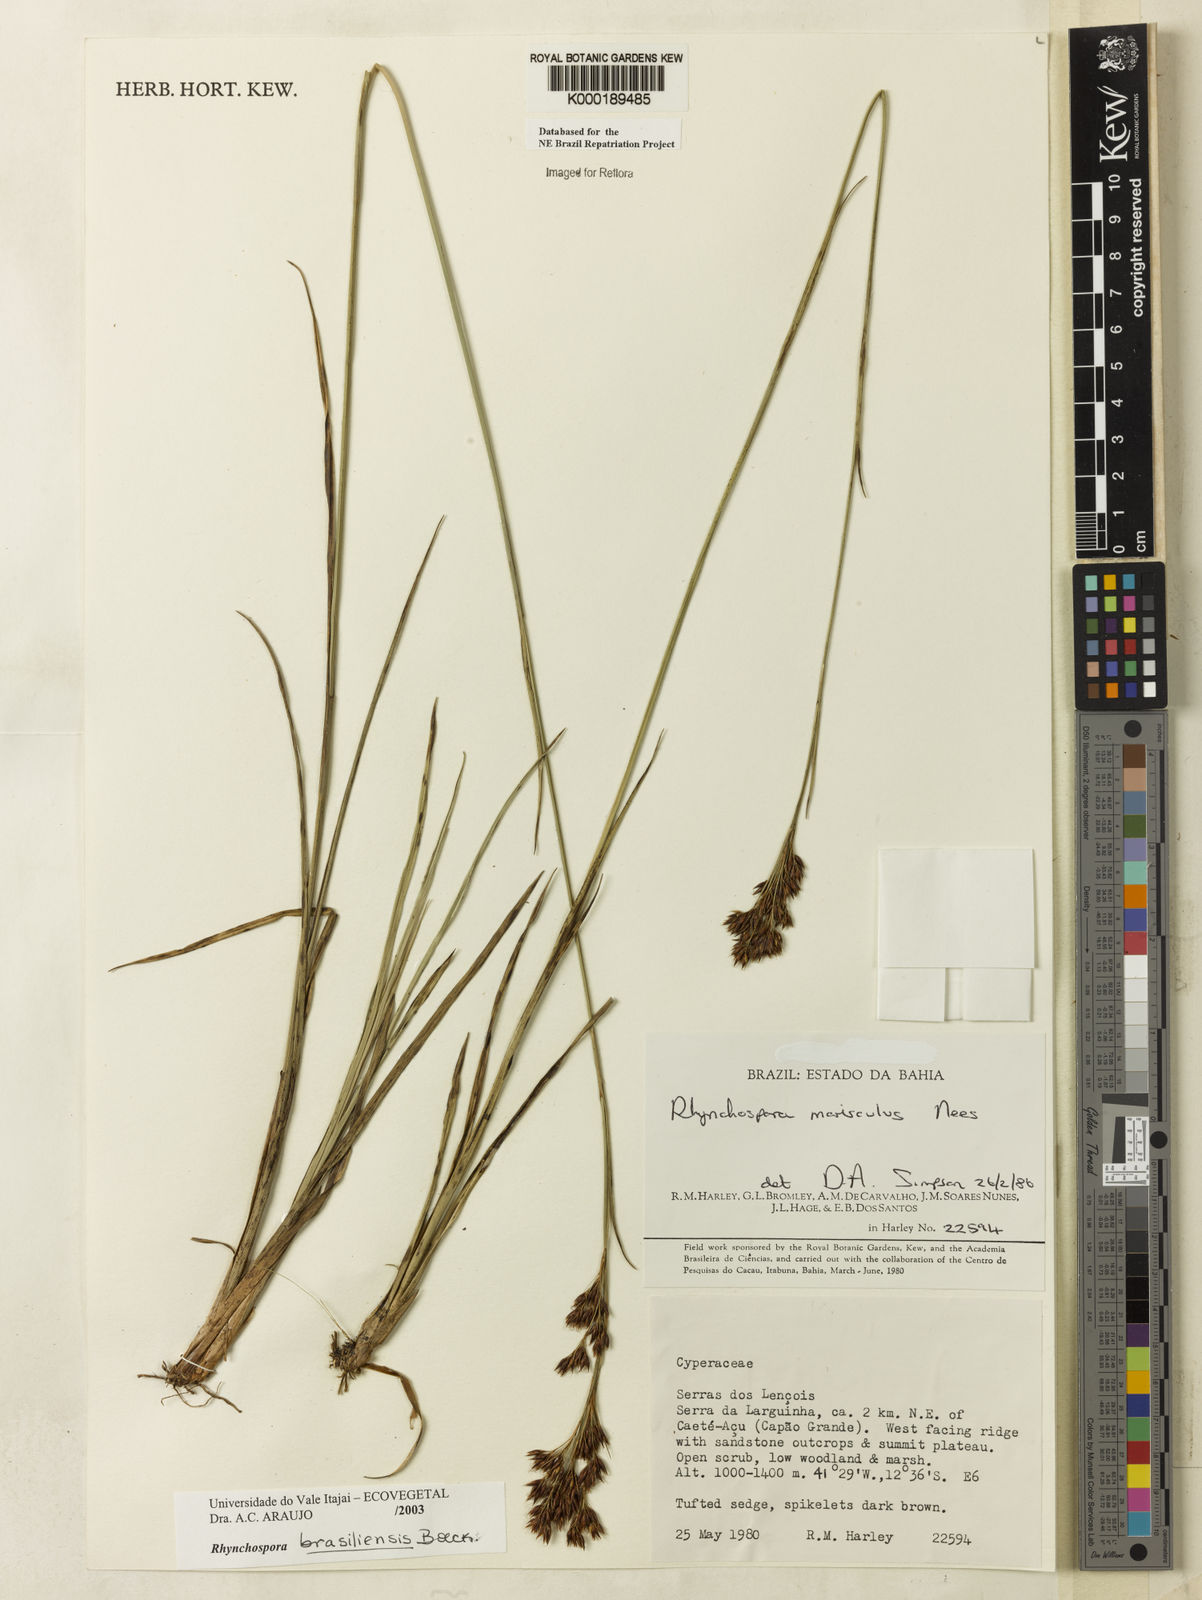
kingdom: Plantae
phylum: Tracheophyta
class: Liliopsida
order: Poales
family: Cyperaceae
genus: Rhynchospora
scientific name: Rhynchospora brasiliensis
